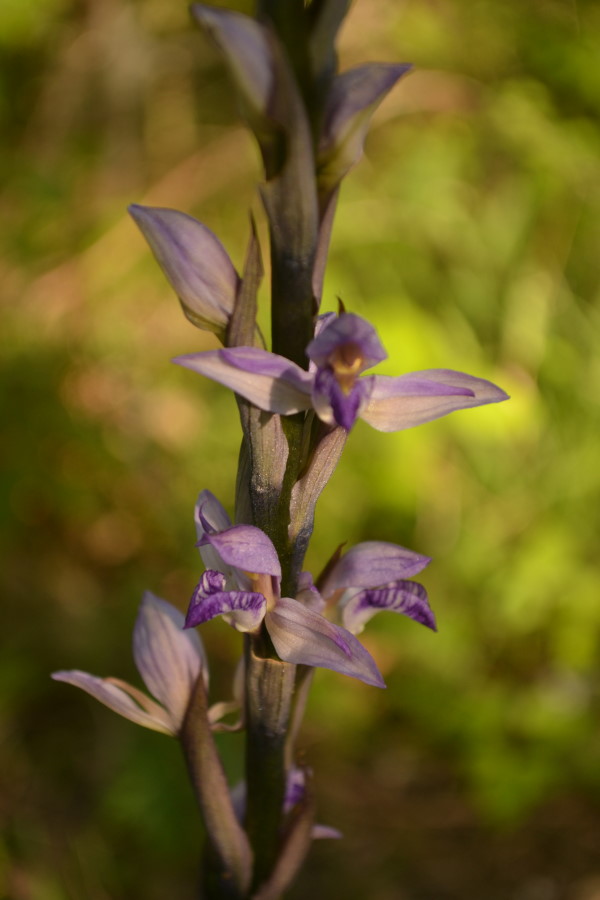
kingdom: Plantae
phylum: Tracheophyta
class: Liliopsida
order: Asparagales
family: Orchidaceae
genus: Limodorum
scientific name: Limodorum abortivum
